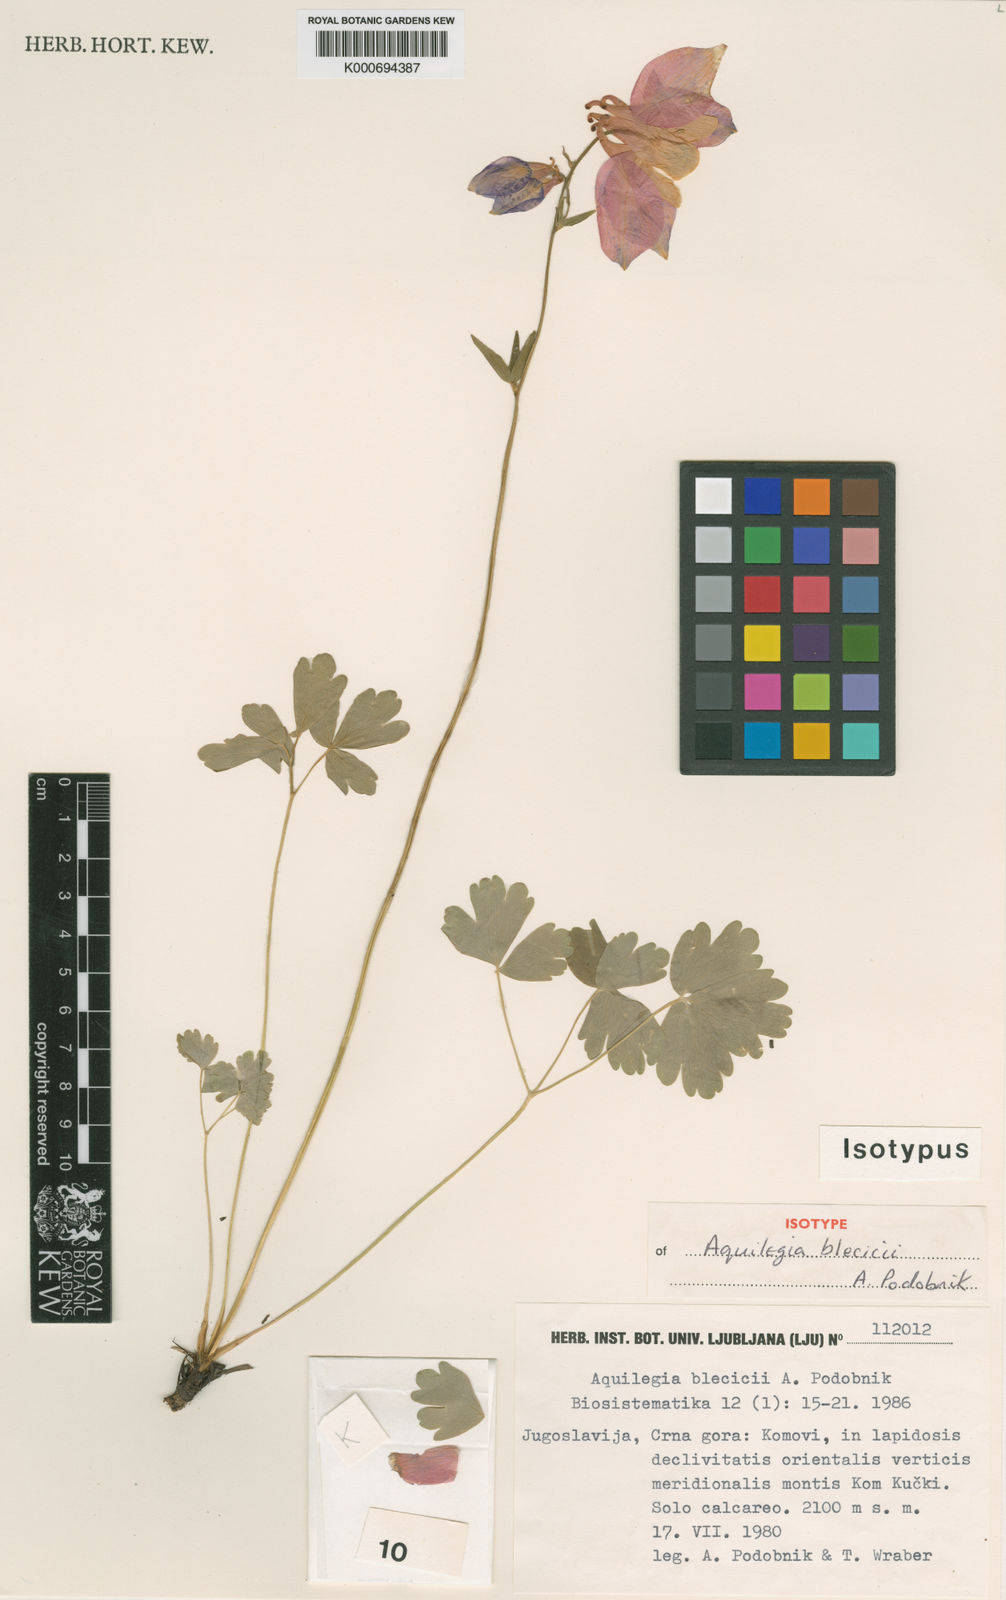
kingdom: Plantae
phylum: Tracheophyta
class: Magnoliopsida
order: Ranunculales
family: Ranunculaceae
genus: Aquilegia
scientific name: Aquilegia blecicii
